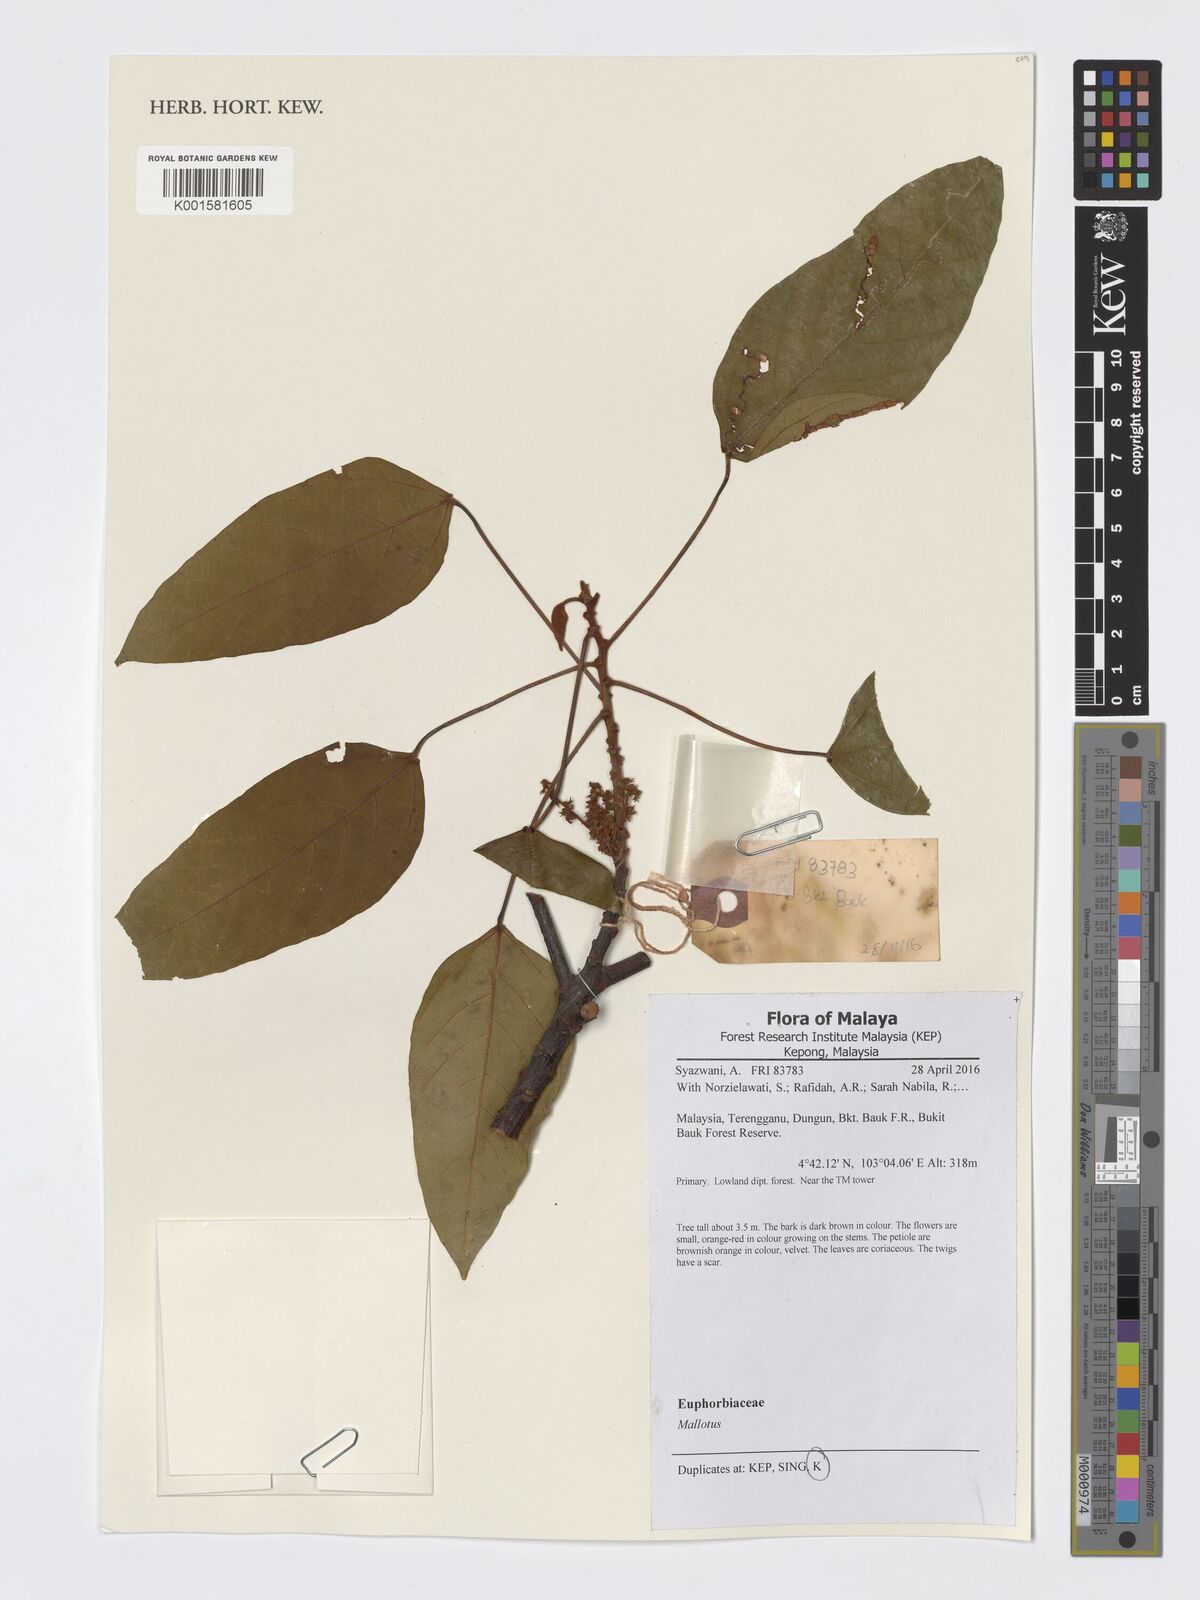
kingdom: Plantae
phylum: Tracheophyta
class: Magnoliopsida
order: Malpighiales
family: Euphorbiaceae
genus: Mallotus
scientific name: Mallotus
